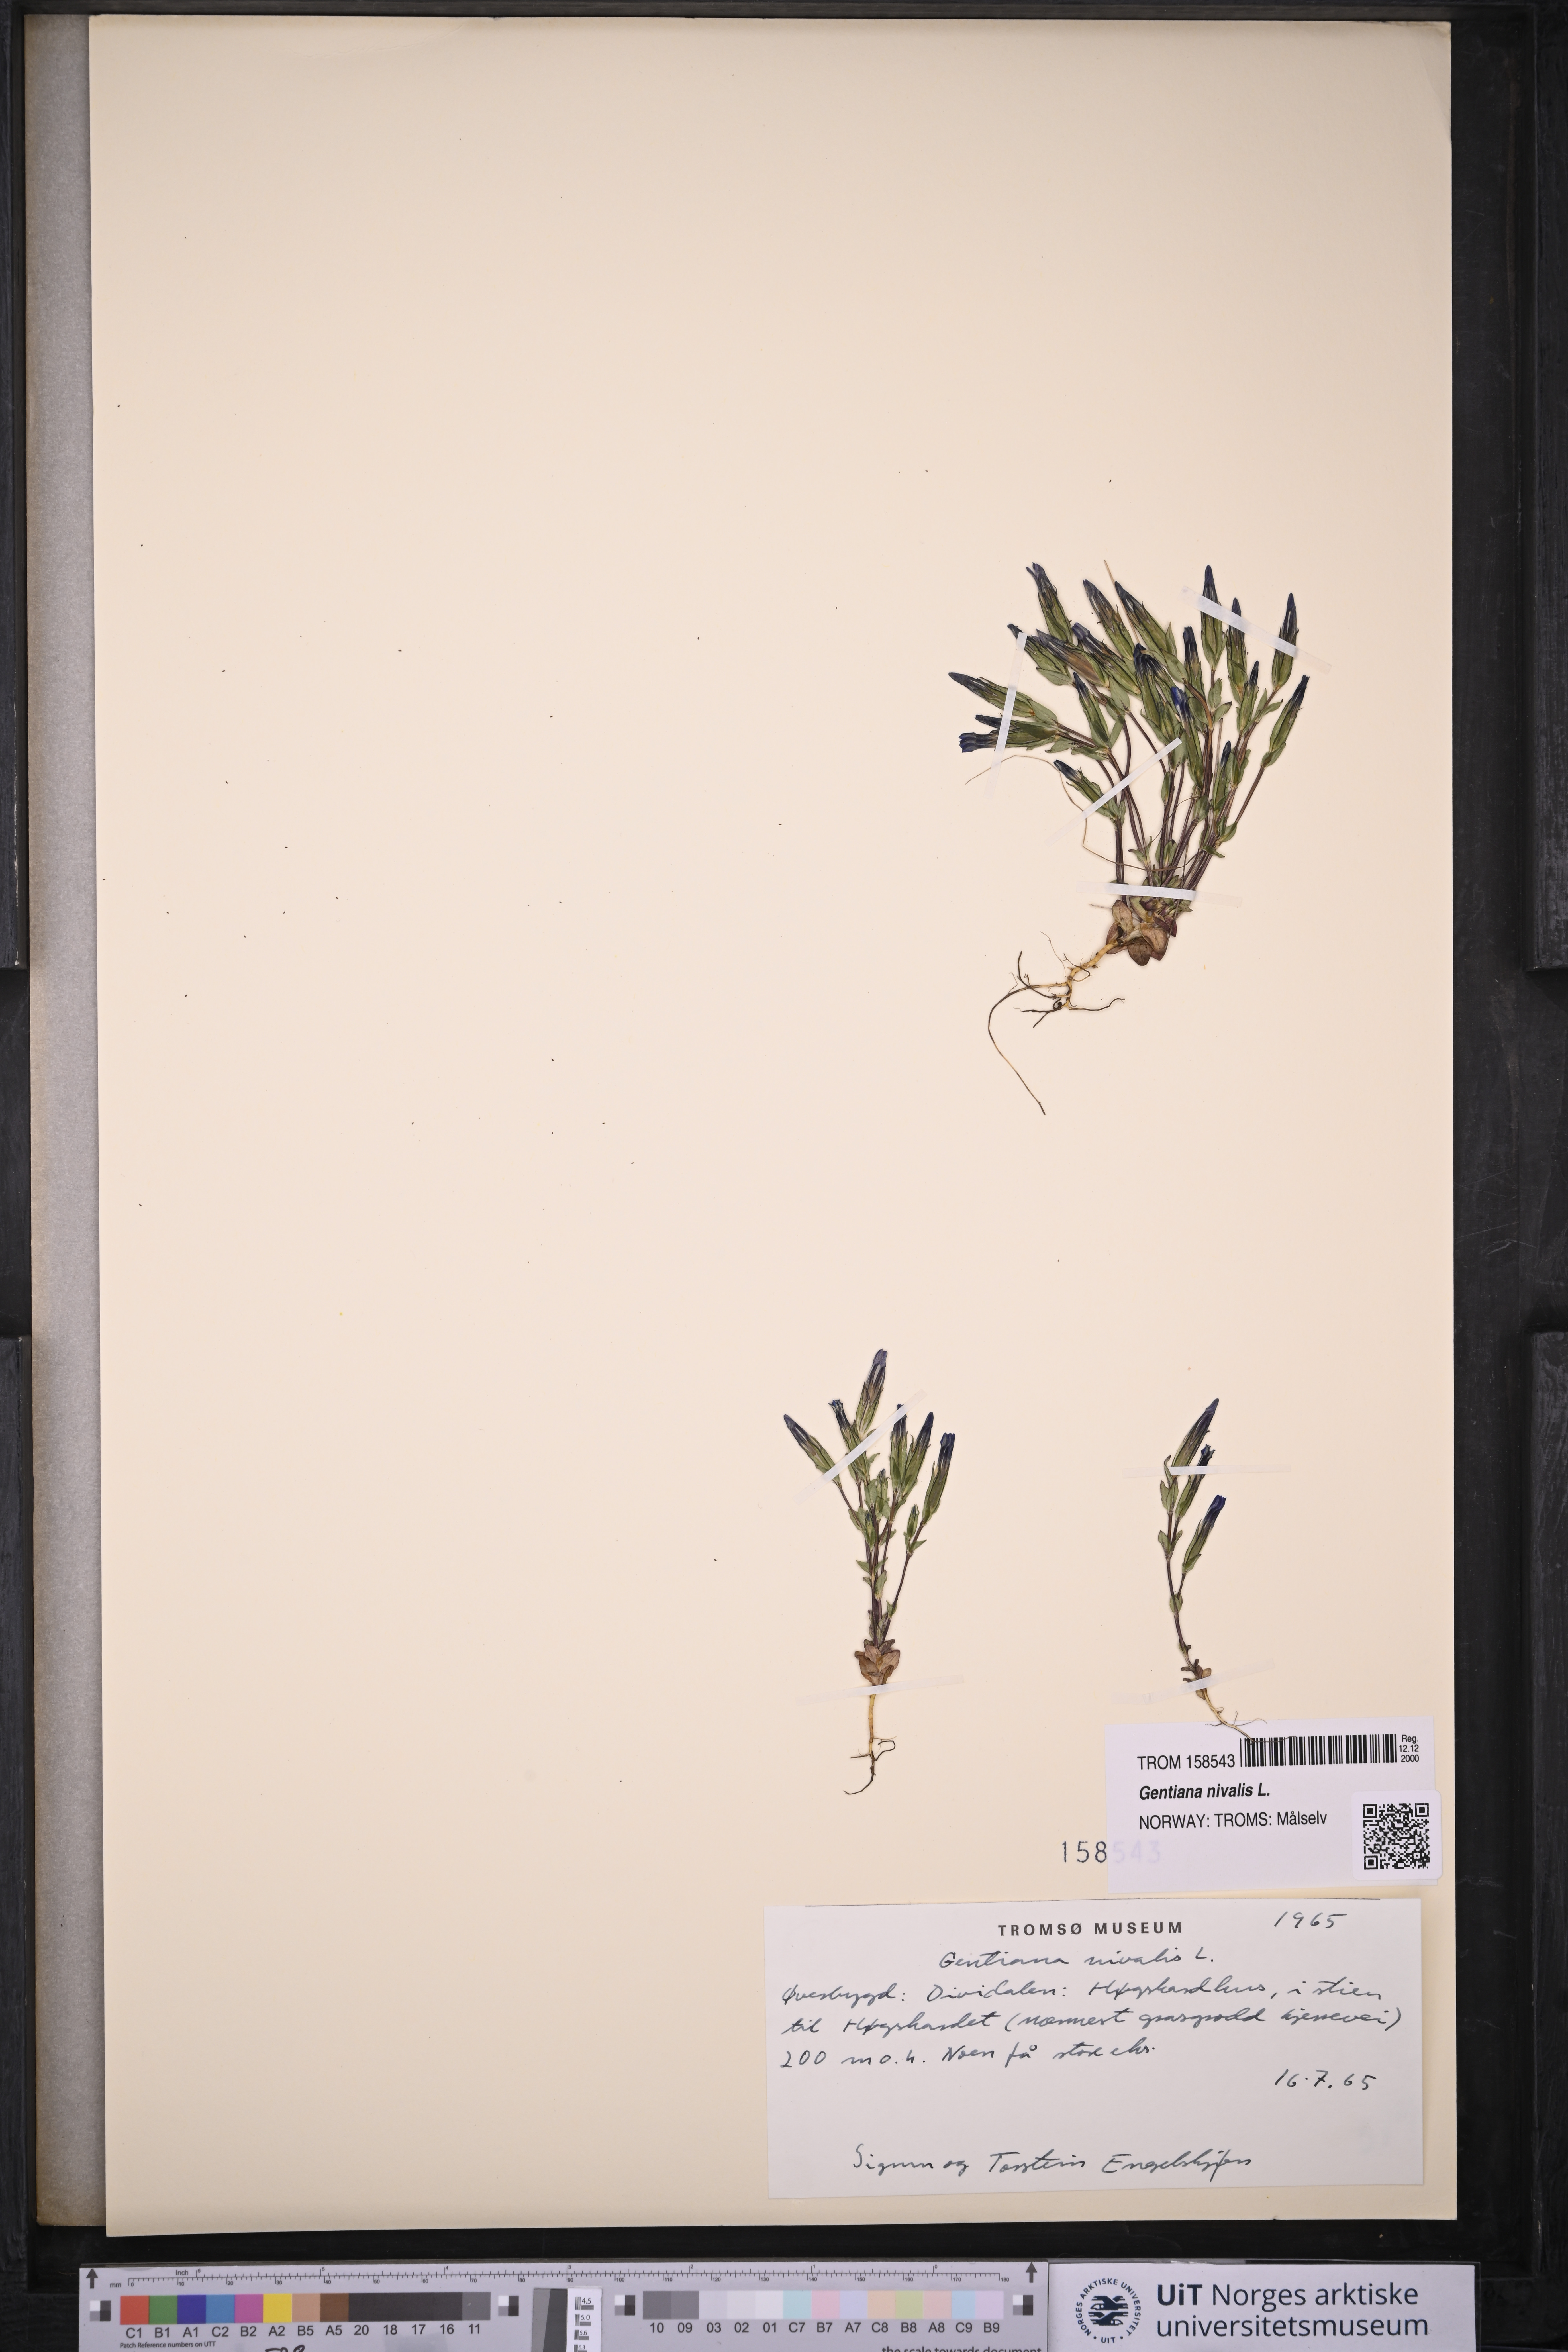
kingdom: Plantae
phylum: Tracheophyta
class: Magnoliopsida
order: Gentianales
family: Gentianaceae
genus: Gentiana
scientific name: Gentiana nivalis
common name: Alpine gentian
